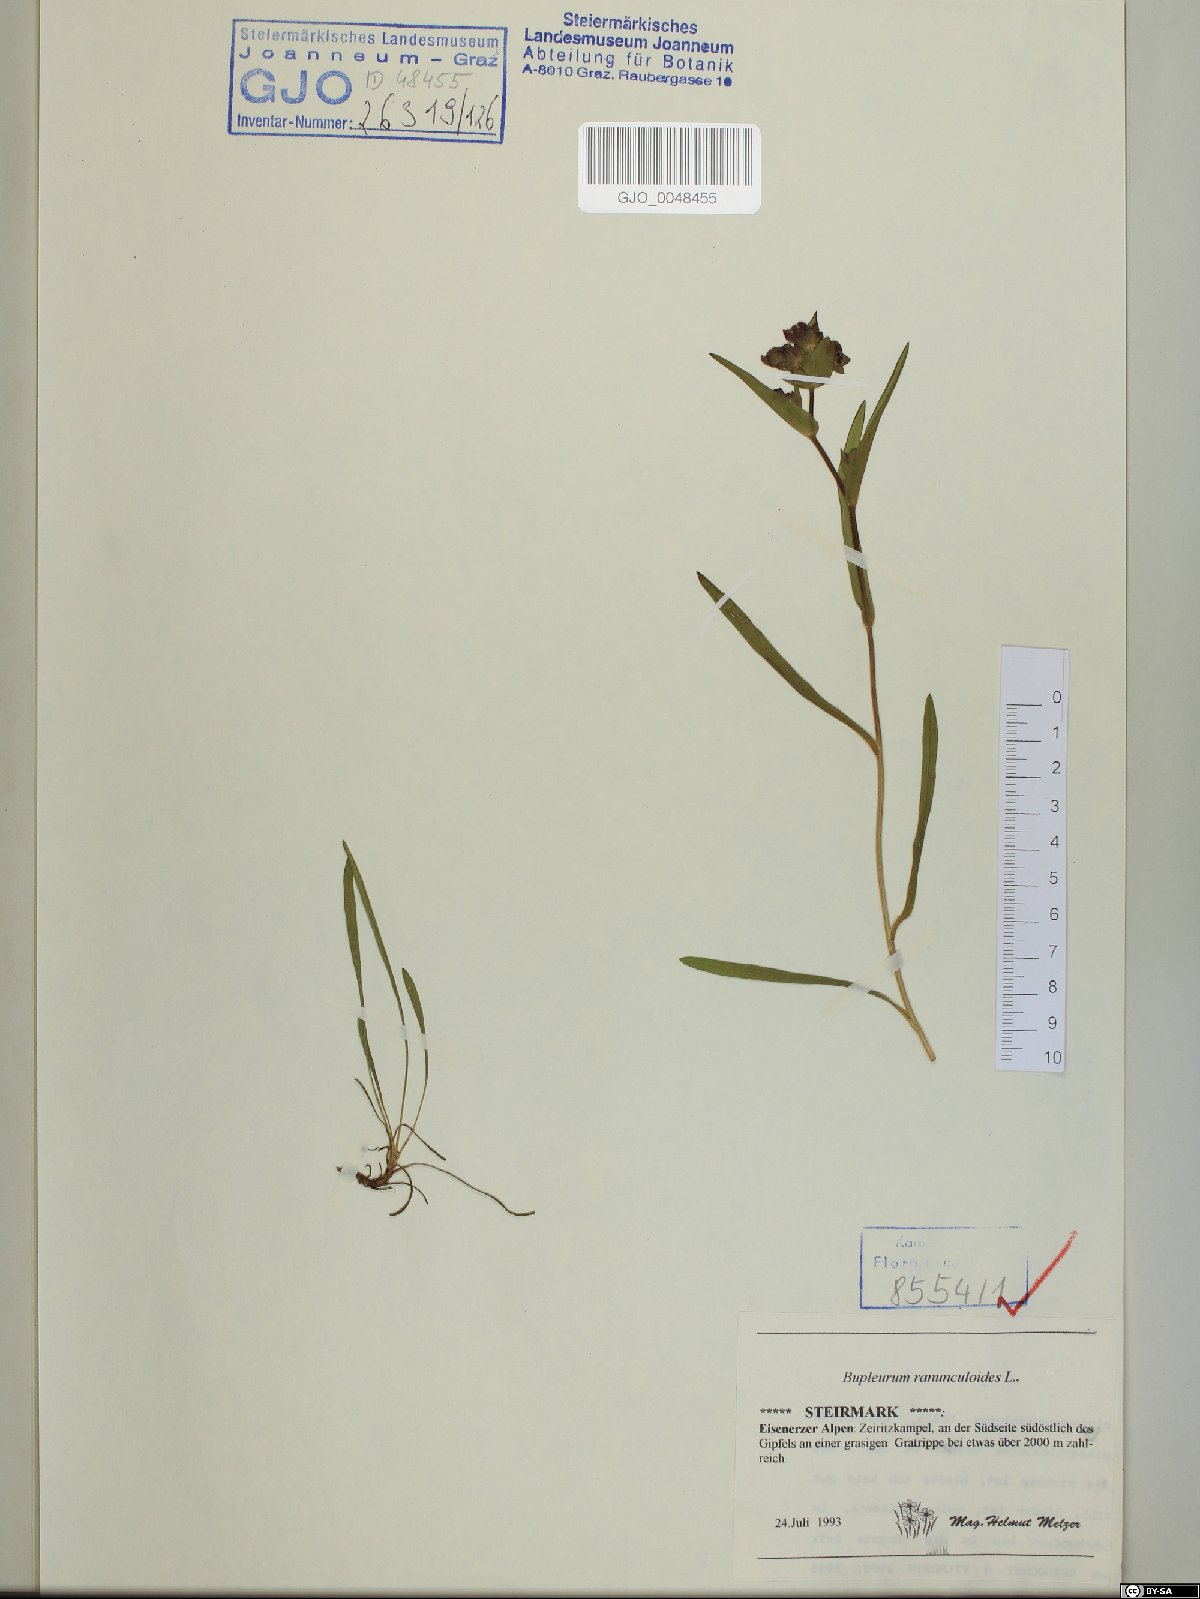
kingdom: Plantae
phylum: Tracheophyta
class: Magnoliopsida
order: Apiales
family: Apiaceae
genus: Bupleurum
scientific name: Bupleurum ranunculoides
